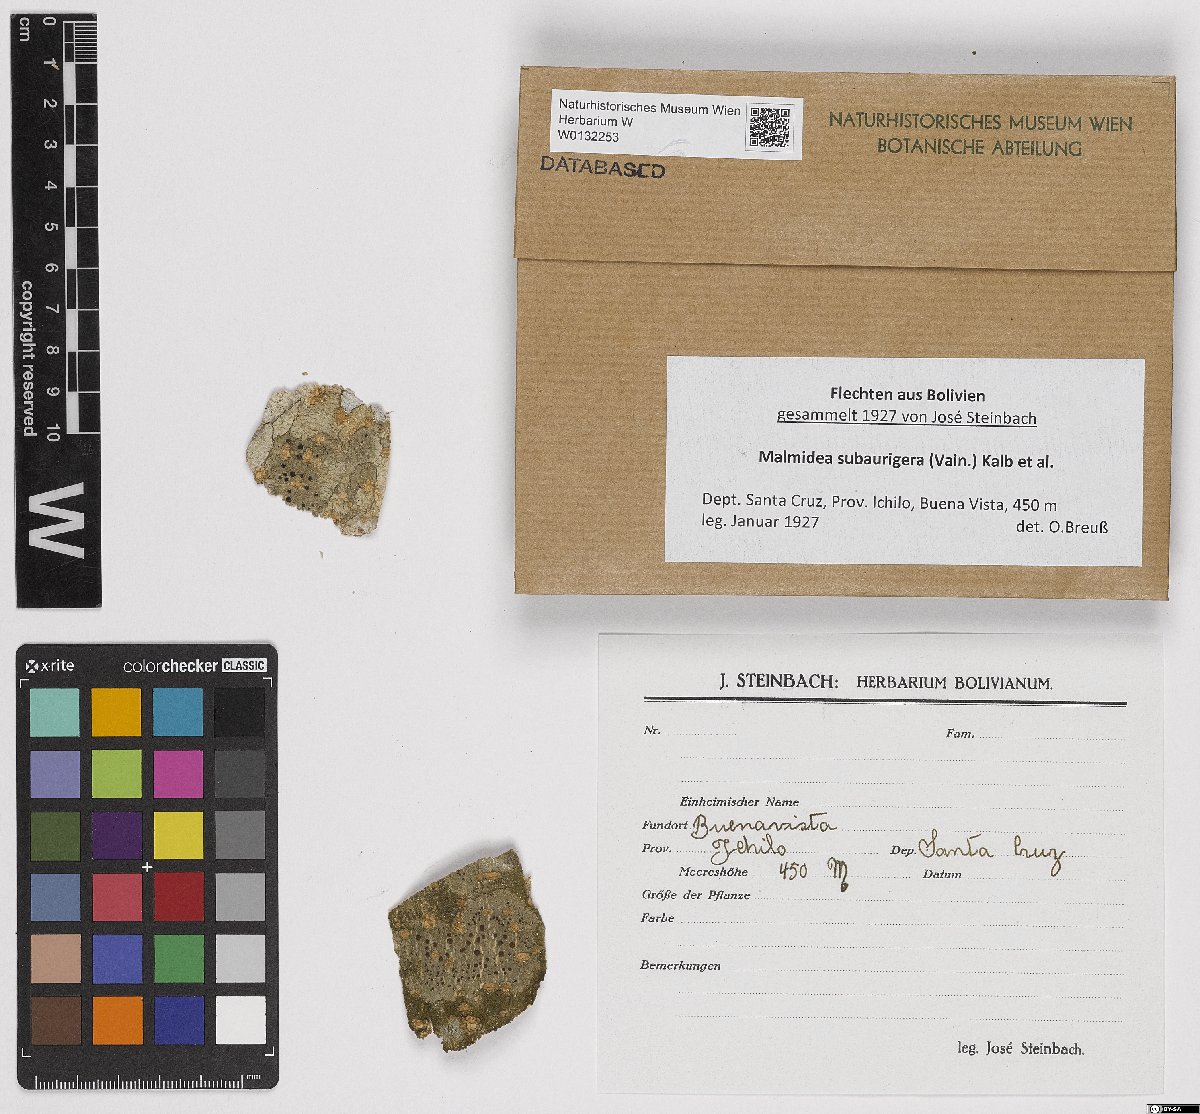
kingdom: Fungi
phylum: Ascomycota
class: Lecanoromycetes
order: Lecanorales
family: Malmideaceae
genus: Malmidea
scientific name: Malmidea subaurigera
